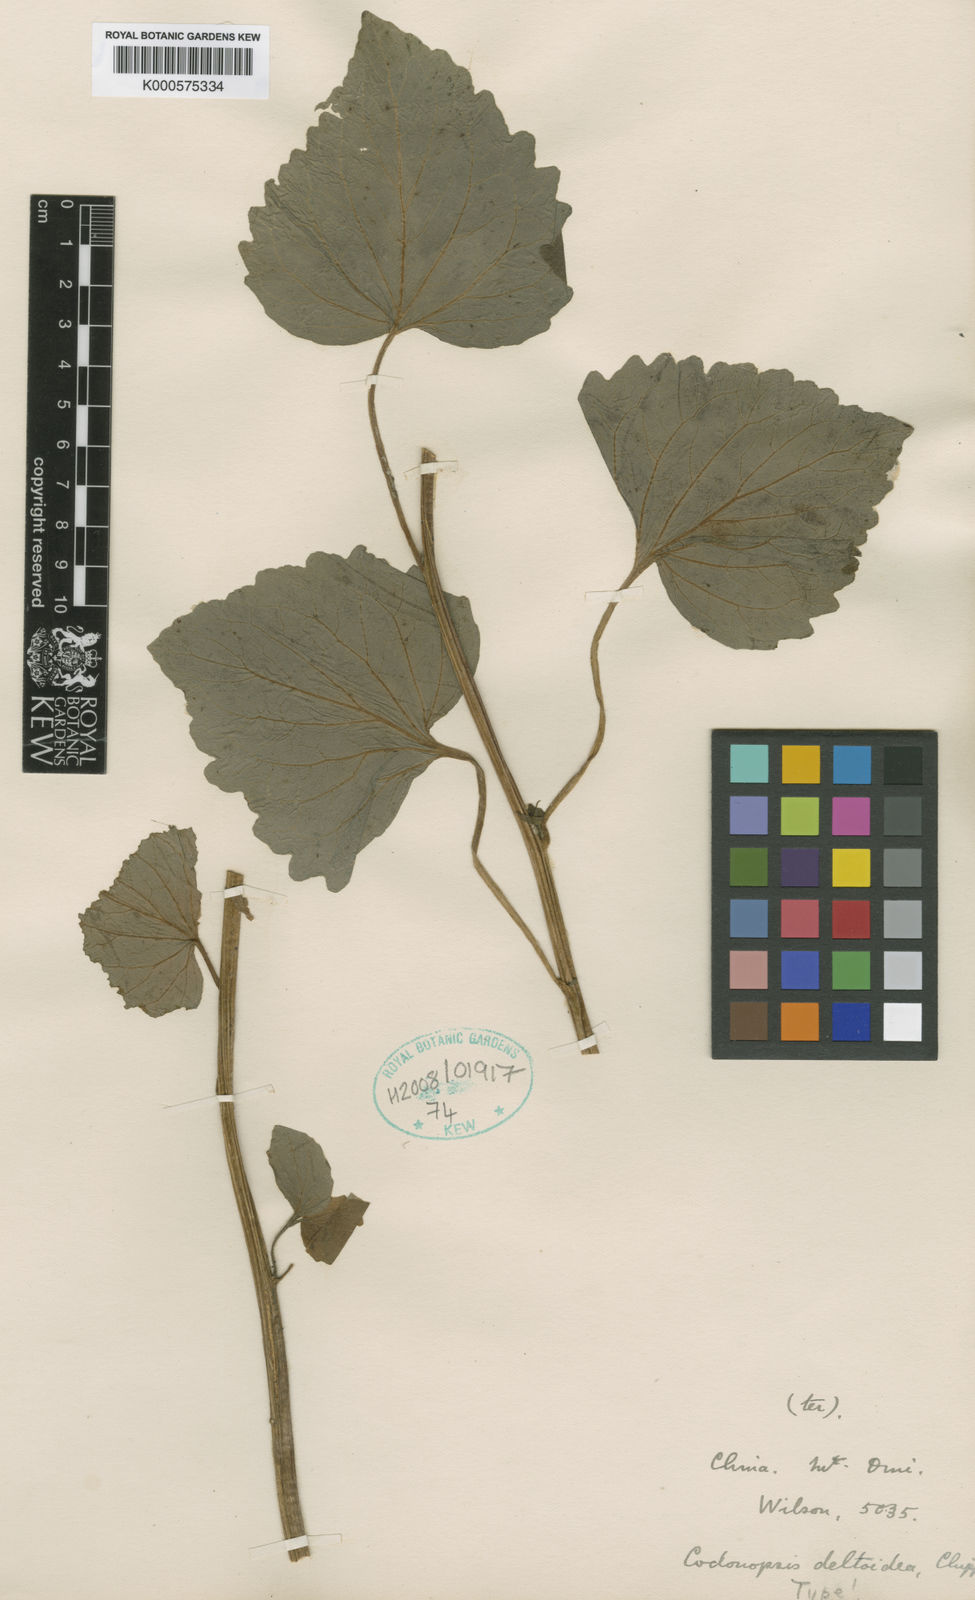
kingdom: Plantae
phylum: Tracheophyta
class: Magnoliopsida
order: Asterales
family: Campanulaceae
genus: Codonopsis
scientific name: Codonopsis deltoidea
